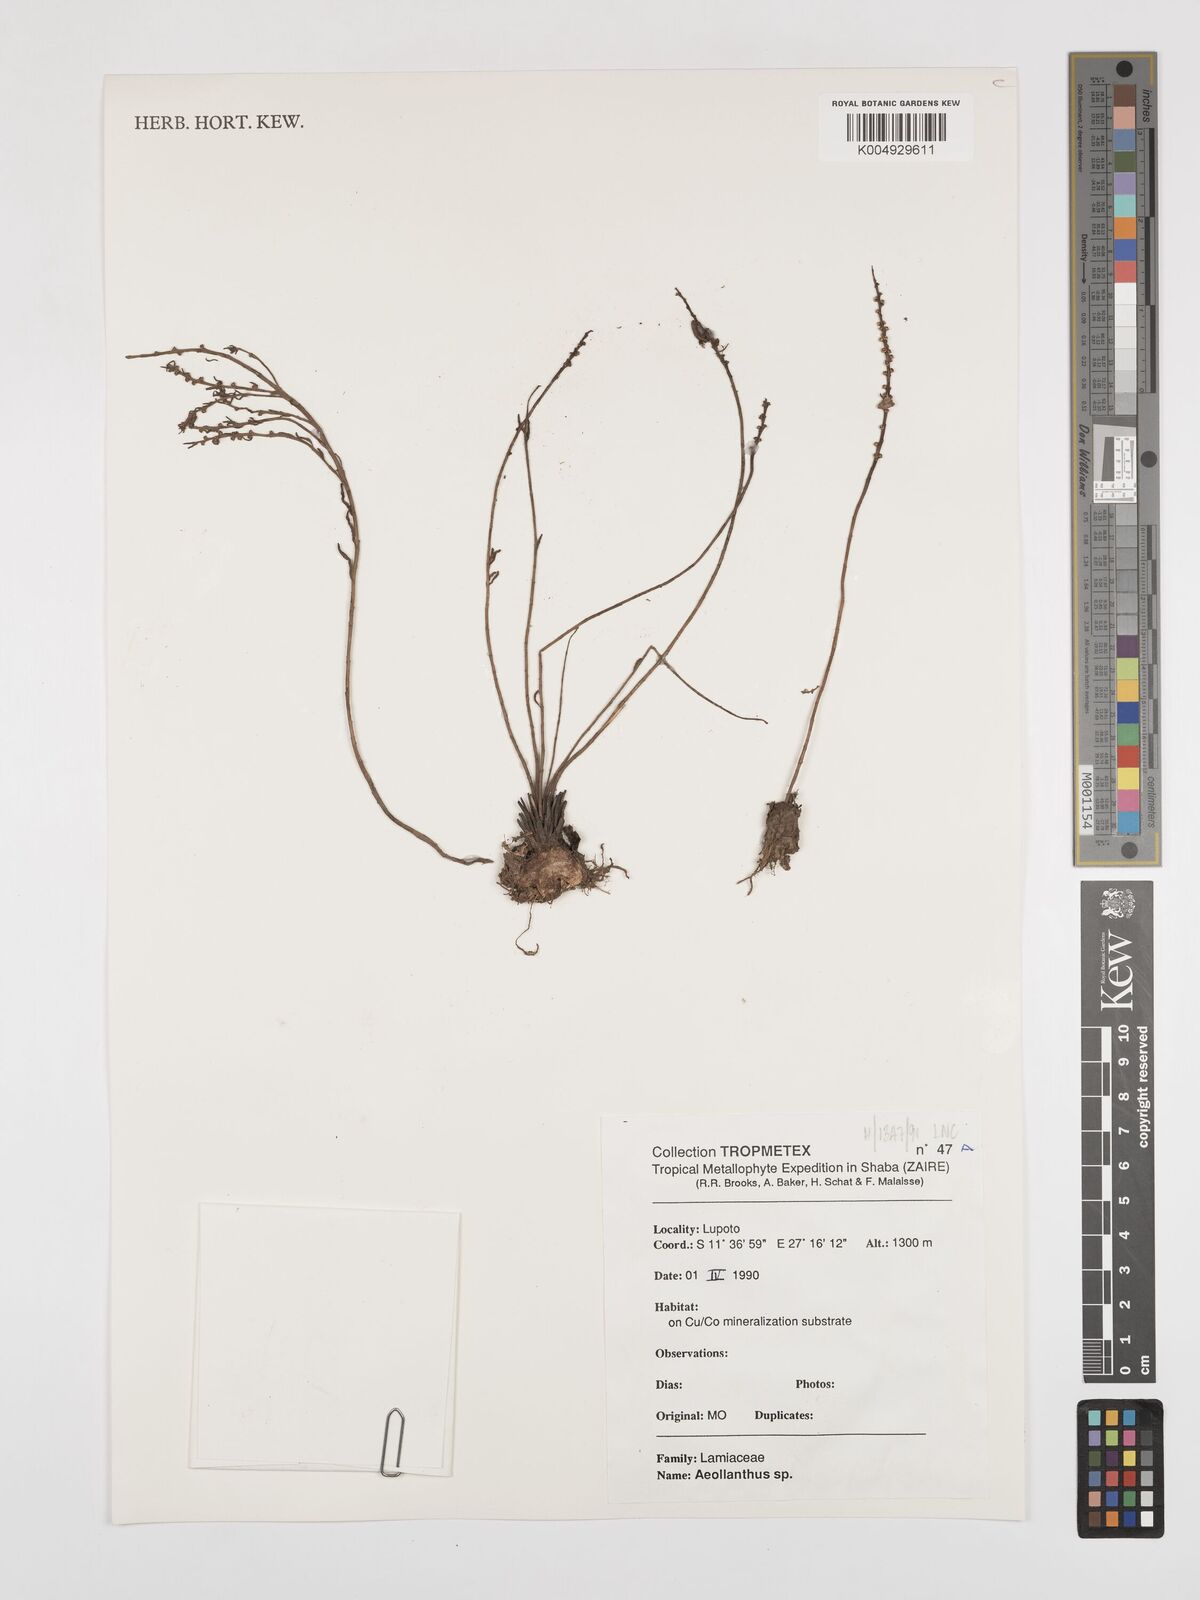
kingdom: Plantae
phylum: Tracheophyta
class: Magnoliopsida
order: Lamiales
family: Lamiaceae
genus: Aeollanthus
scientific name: Aeollanthus
